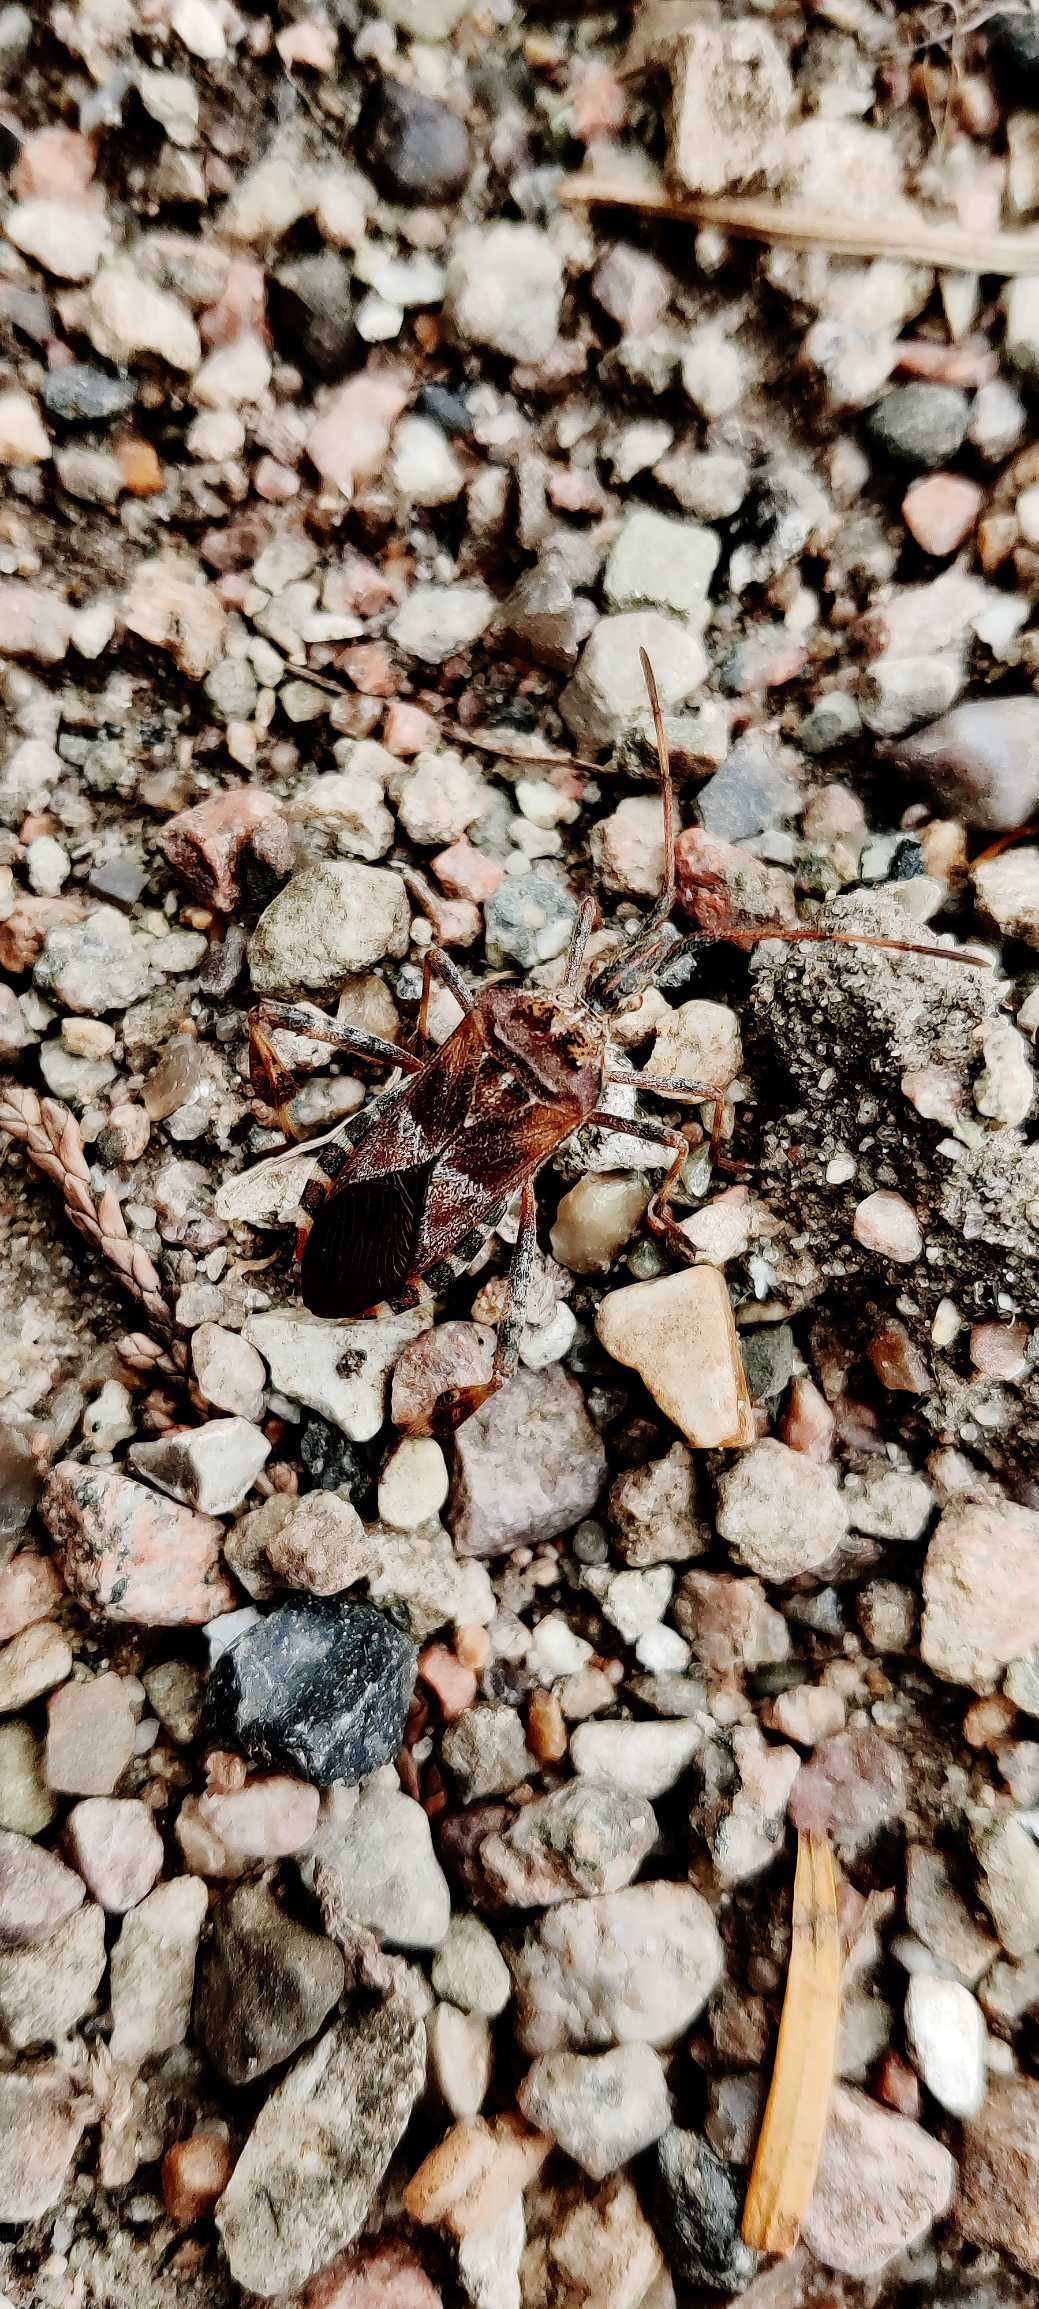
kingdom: Animalia
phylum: Arthropoda
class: Insecta
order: Hemiptera
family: Coreidae
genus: Leptoglossus
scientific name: Leptoglossus occidentalis
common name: Amerikansk fyrretæge
